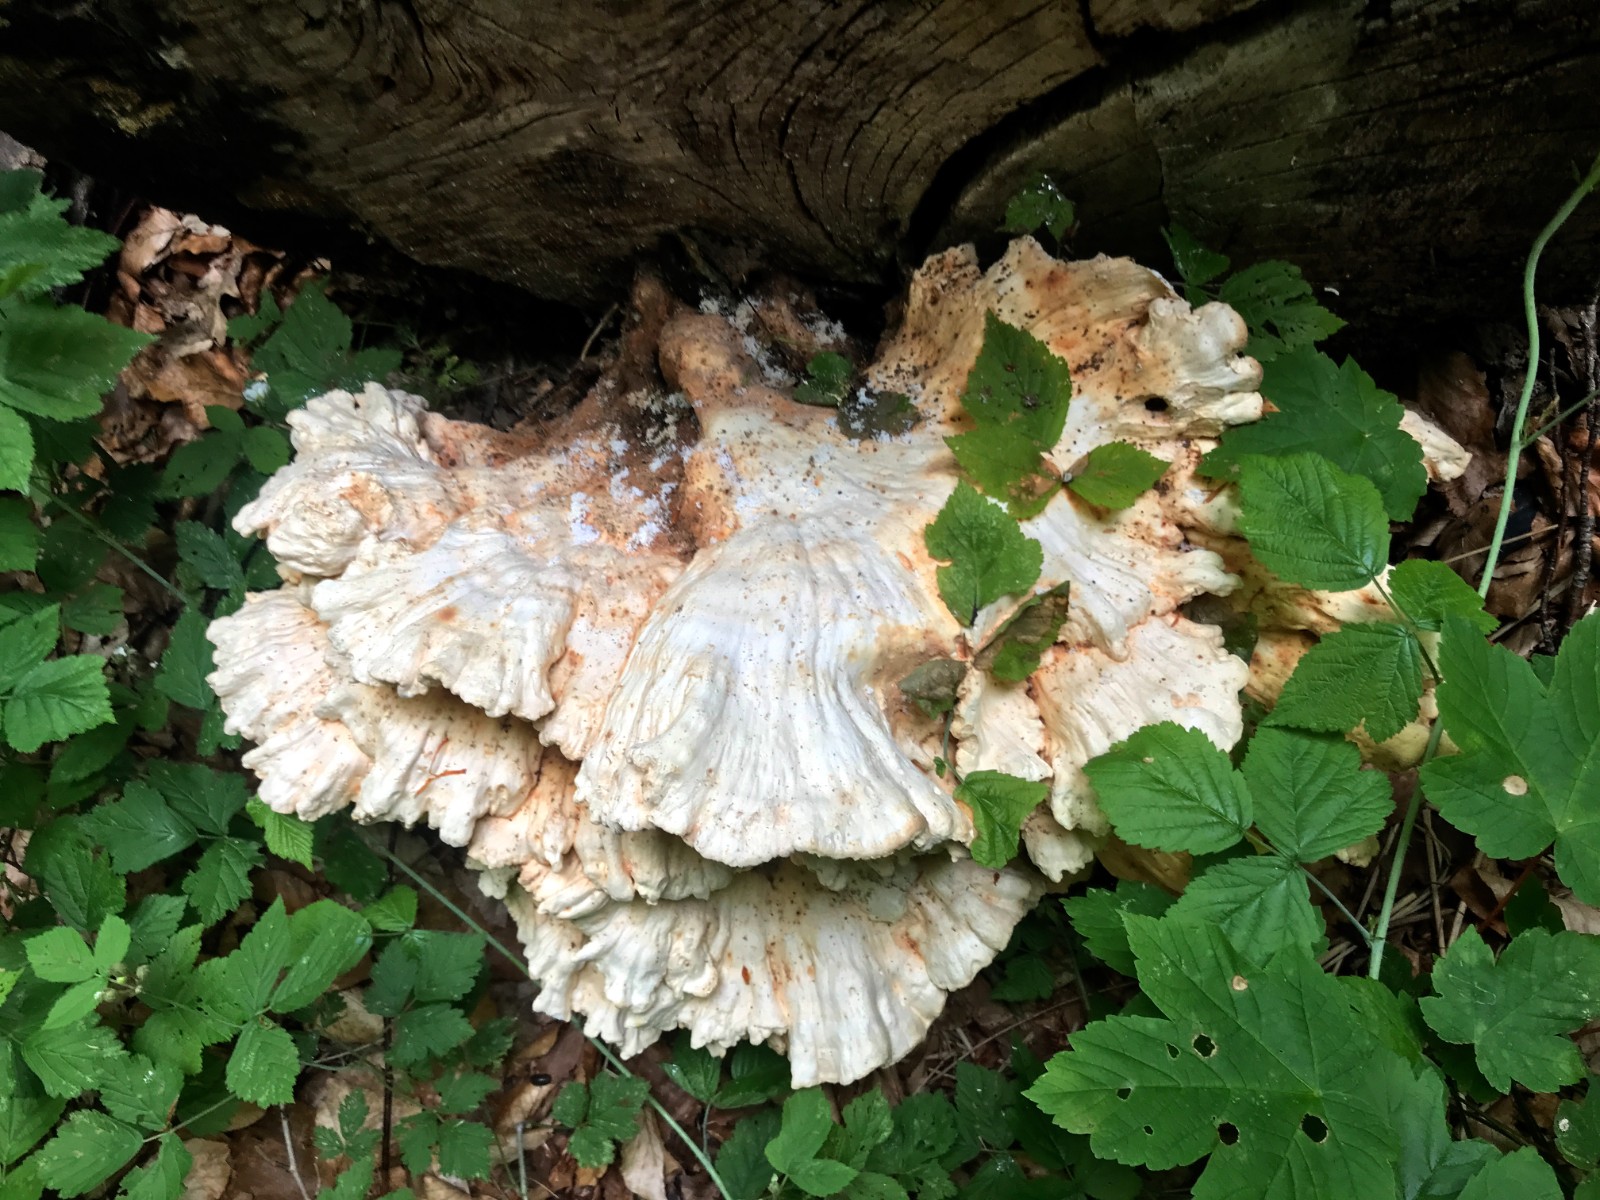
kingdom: Fungi
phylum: Basidiomycota
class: Agaricomycetes
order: Polyporales
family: Laetiporaceae
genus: Laetiporus
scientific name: Laetiporus sulphureus
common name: svovlporesvamp
